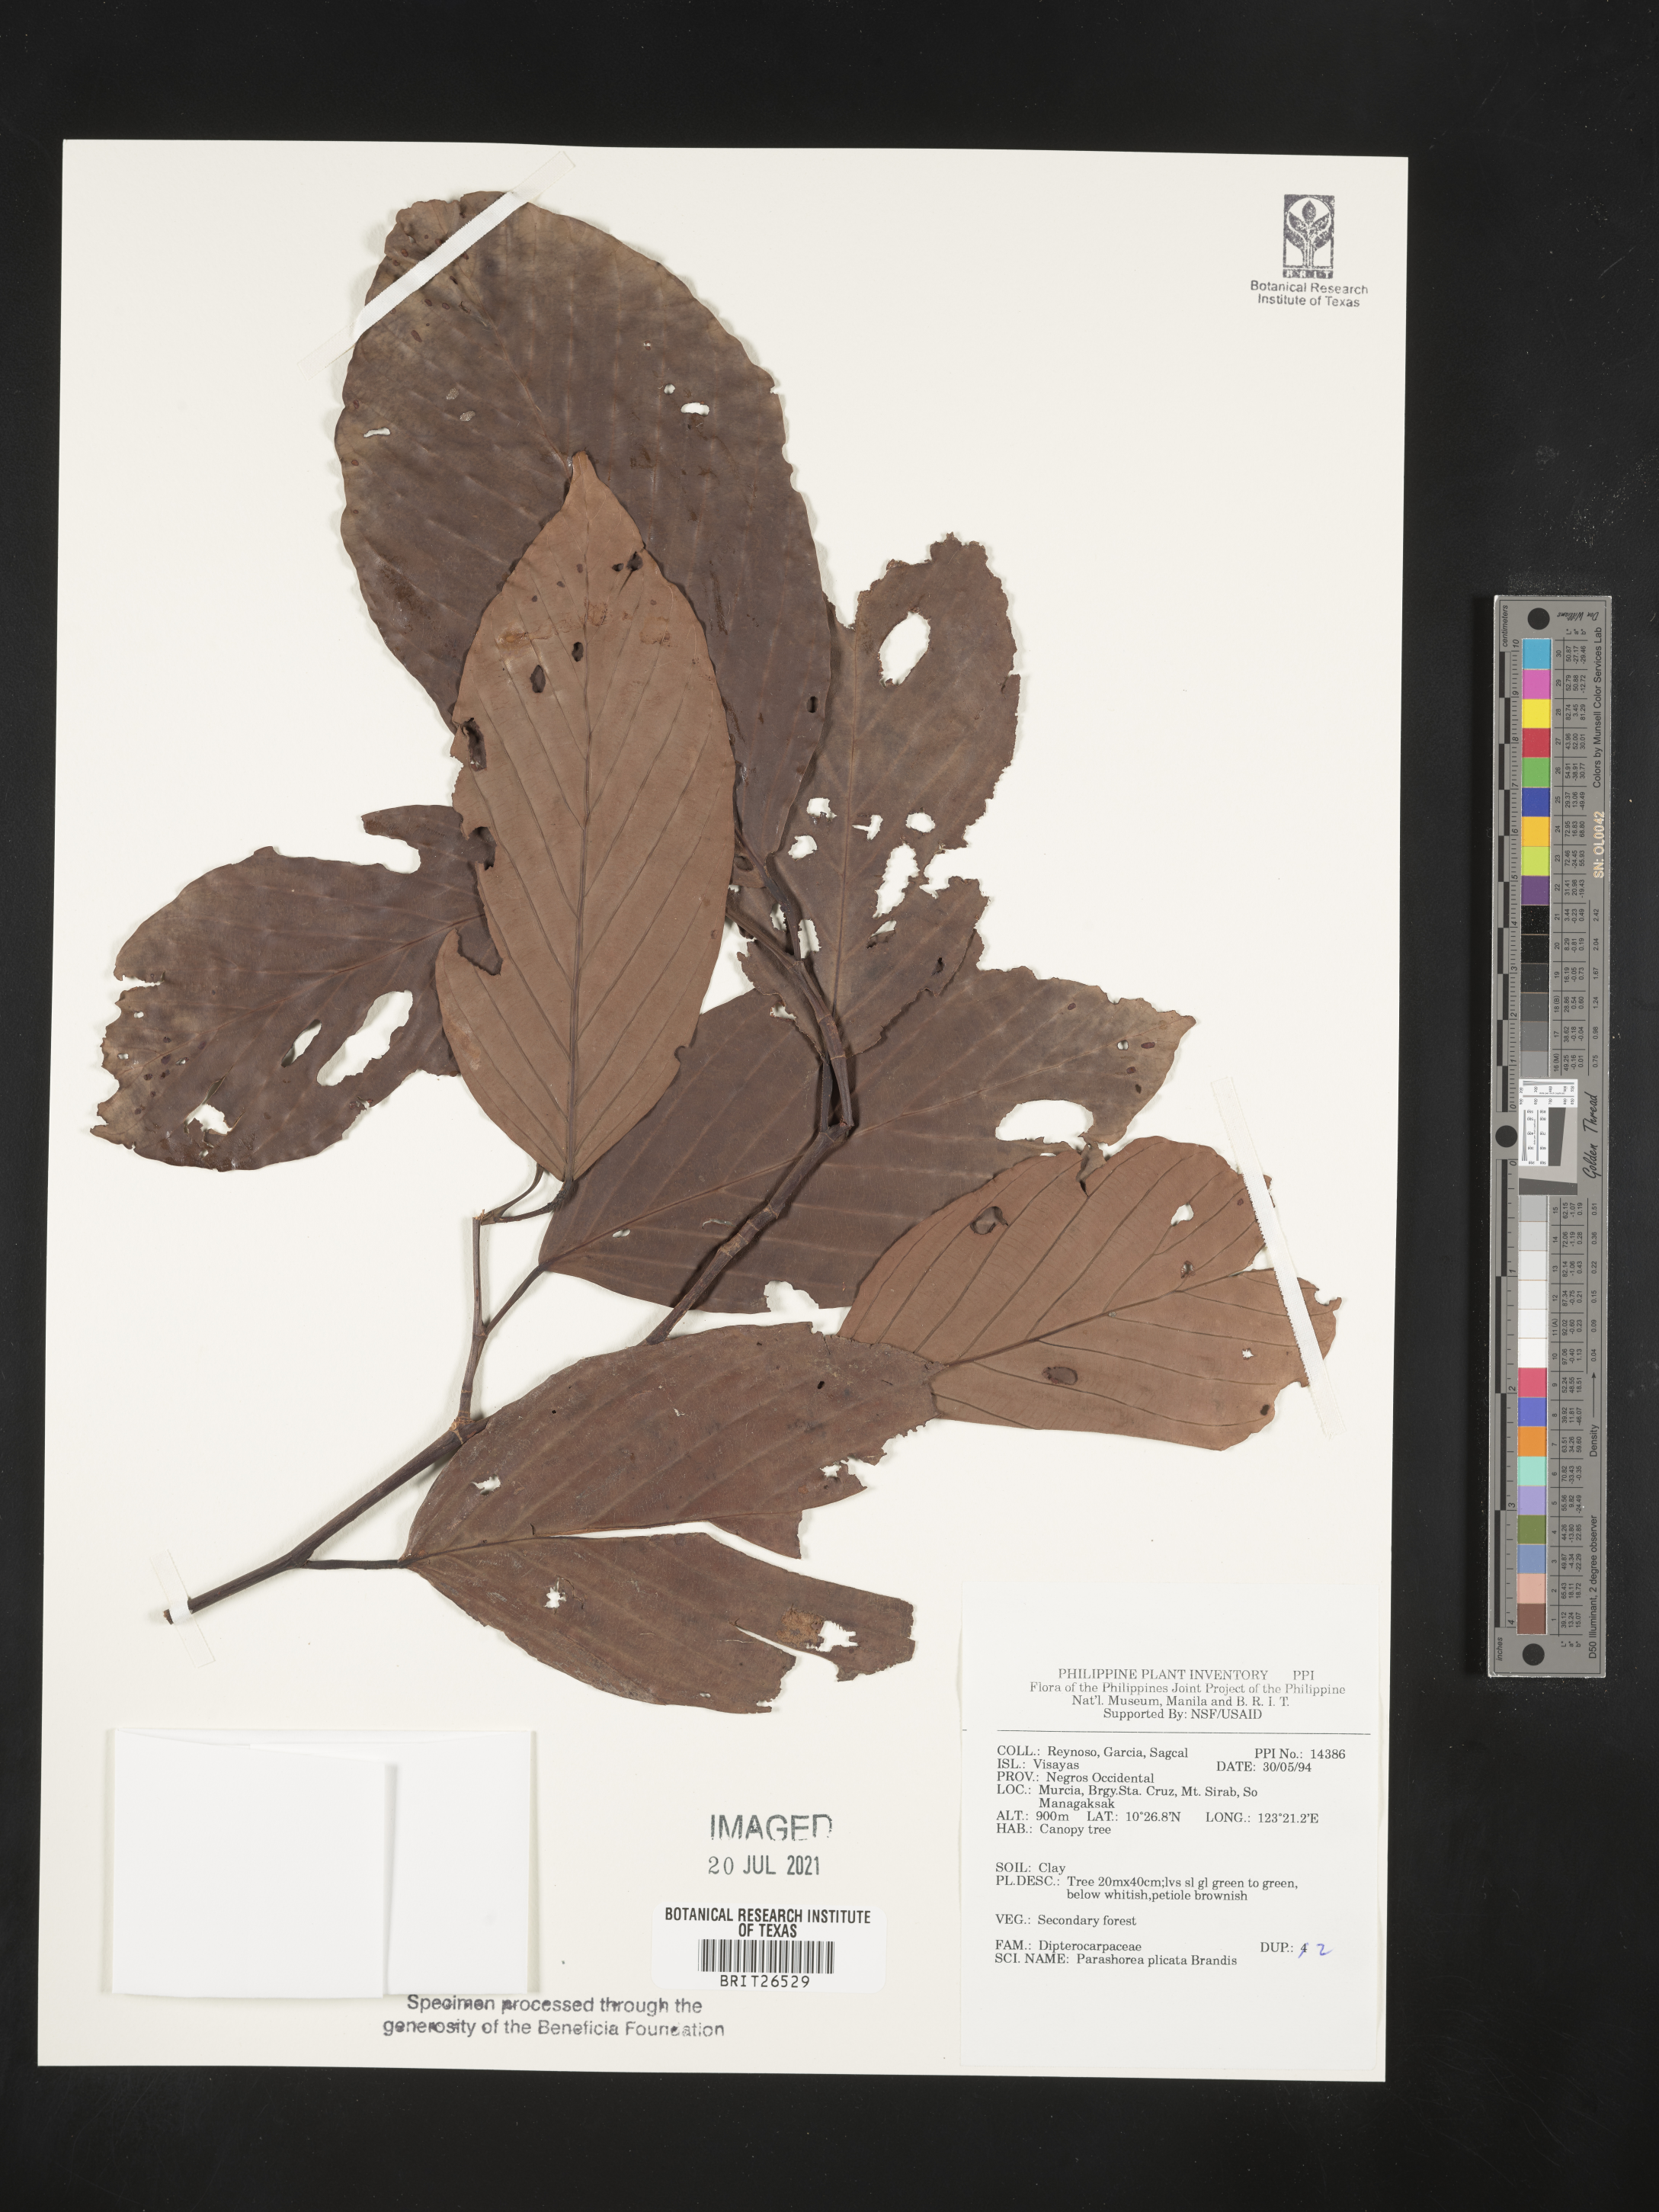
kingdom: Plantae
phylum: Tracheophyta
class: Magnoliopsida
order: Malvales
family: Dipterocarpaceae
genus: Parashorea
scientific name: Parashorea malaanonan
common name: White lauan
